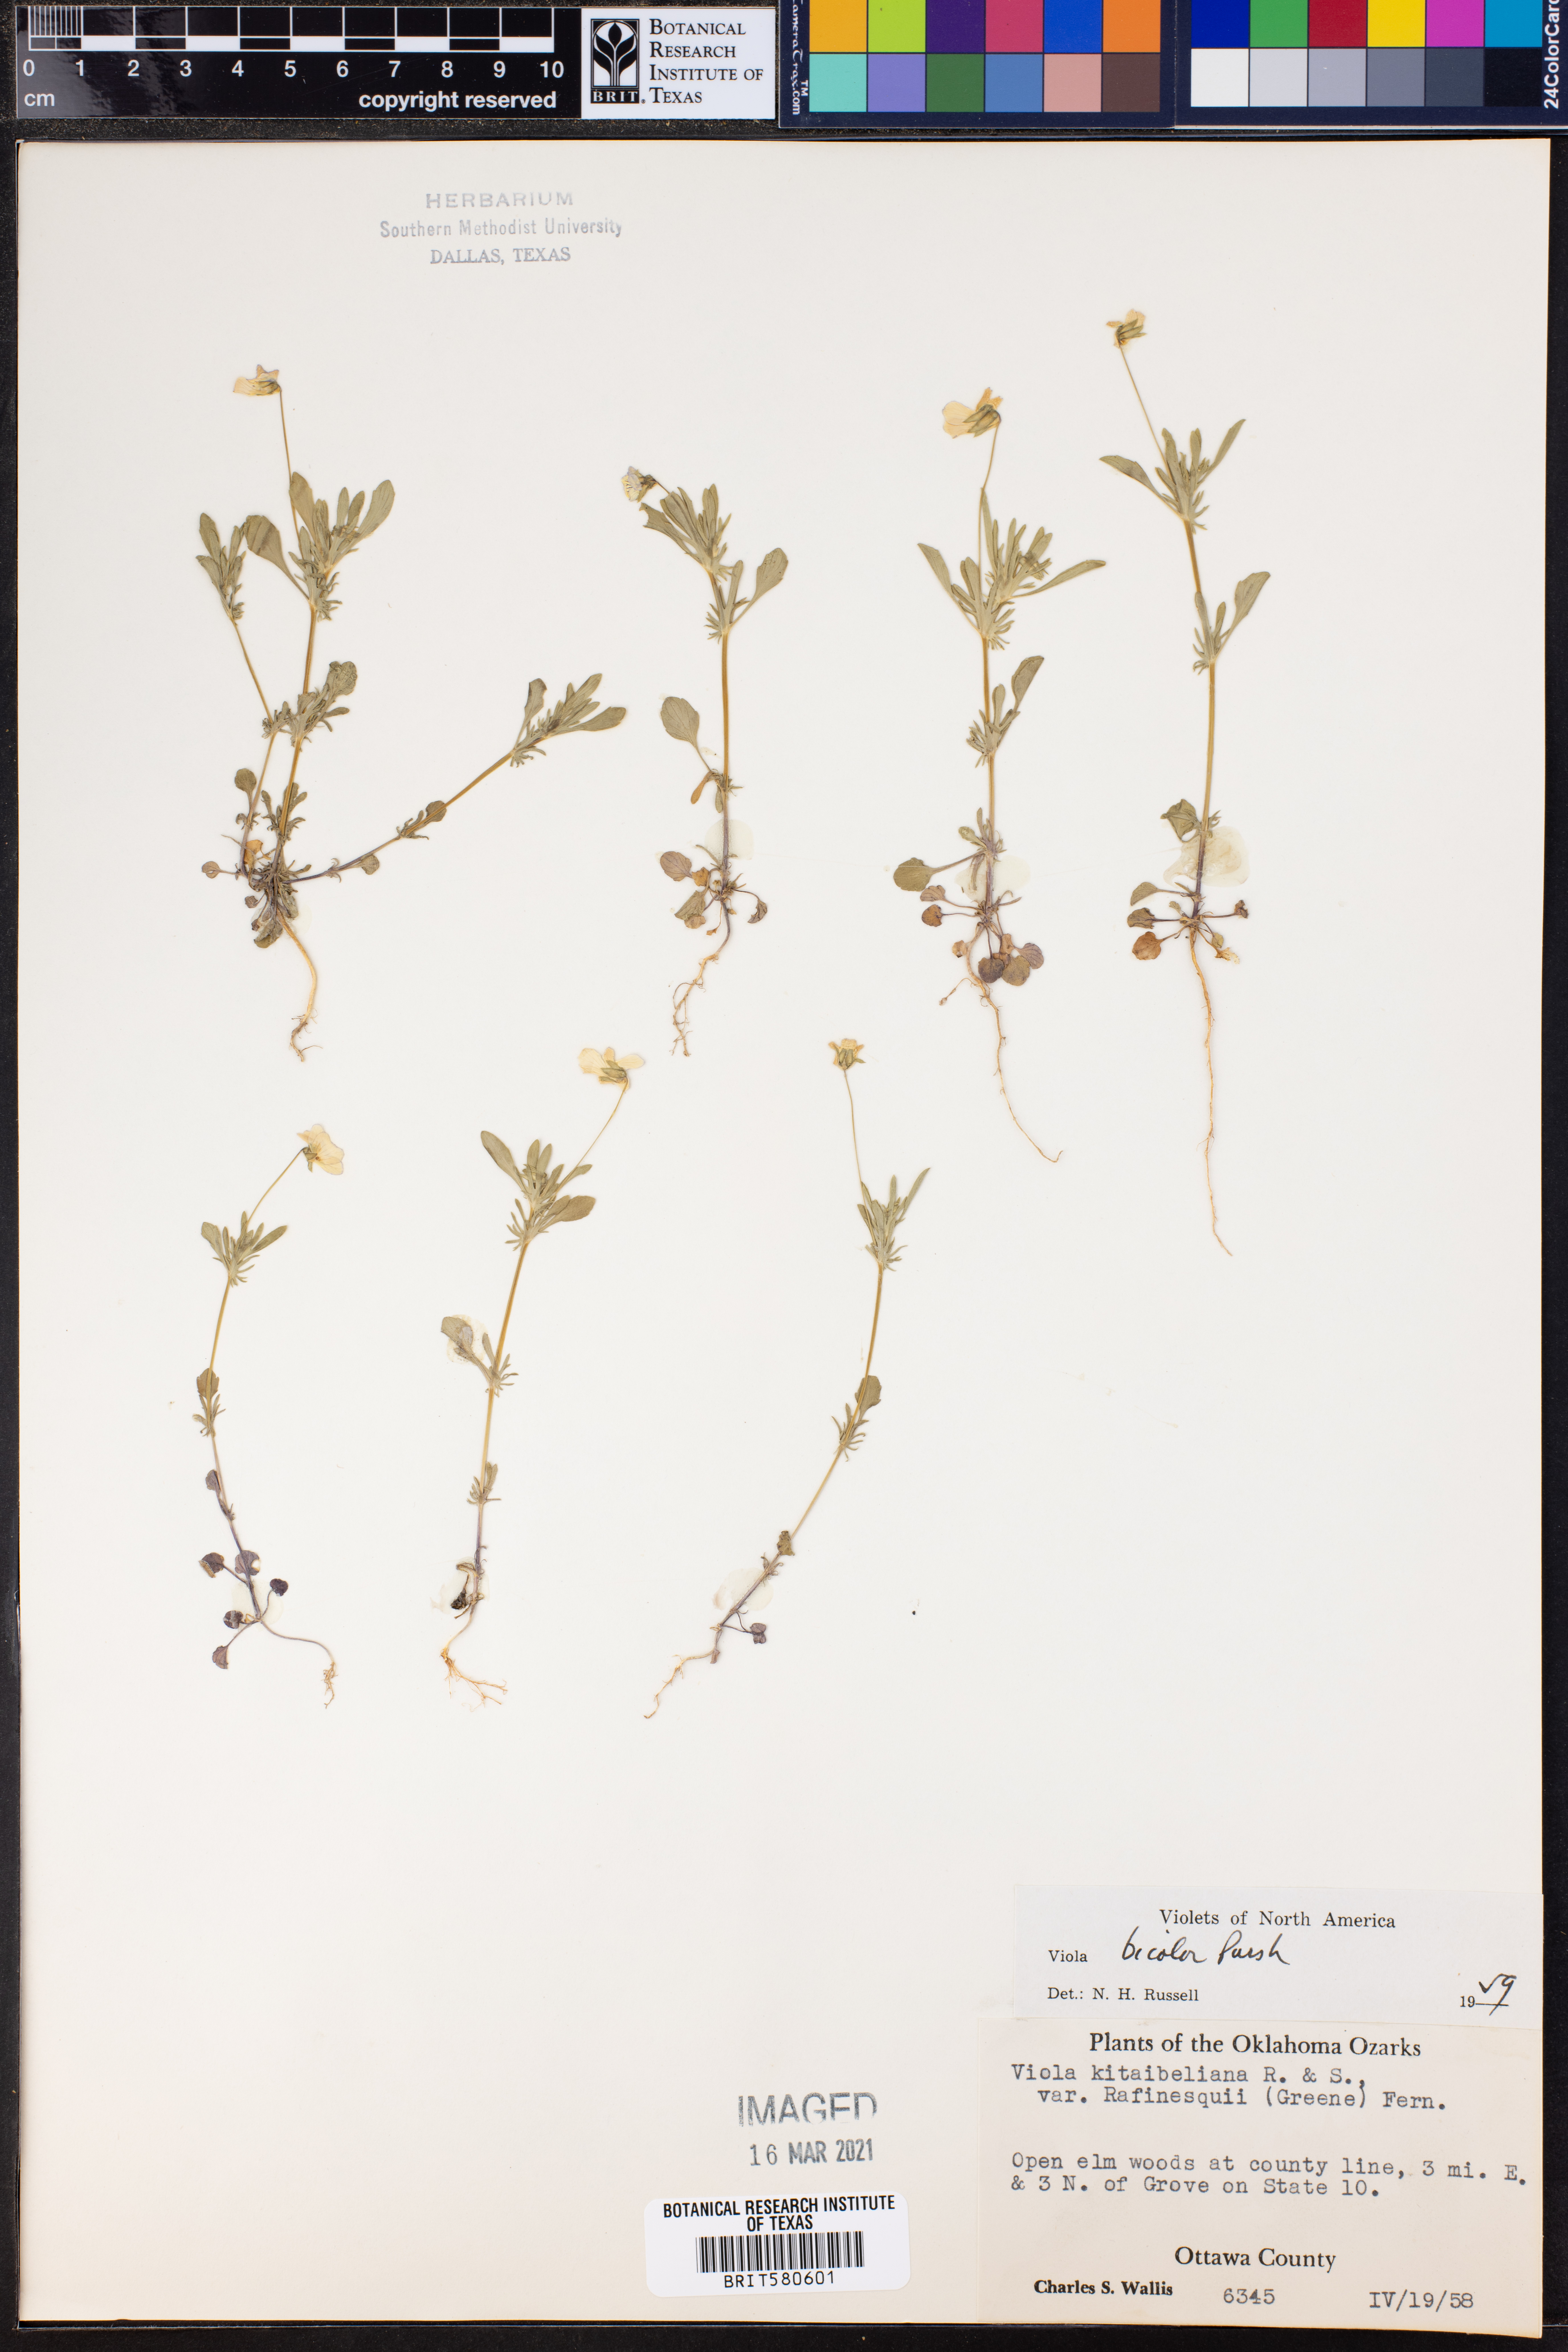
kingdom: Plantae
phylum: Tracheophyta
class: Magnoliopsida
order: Malpighiales
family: Violaceae
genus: Viola
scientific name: Viola rafinesquei
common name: American field pansy
